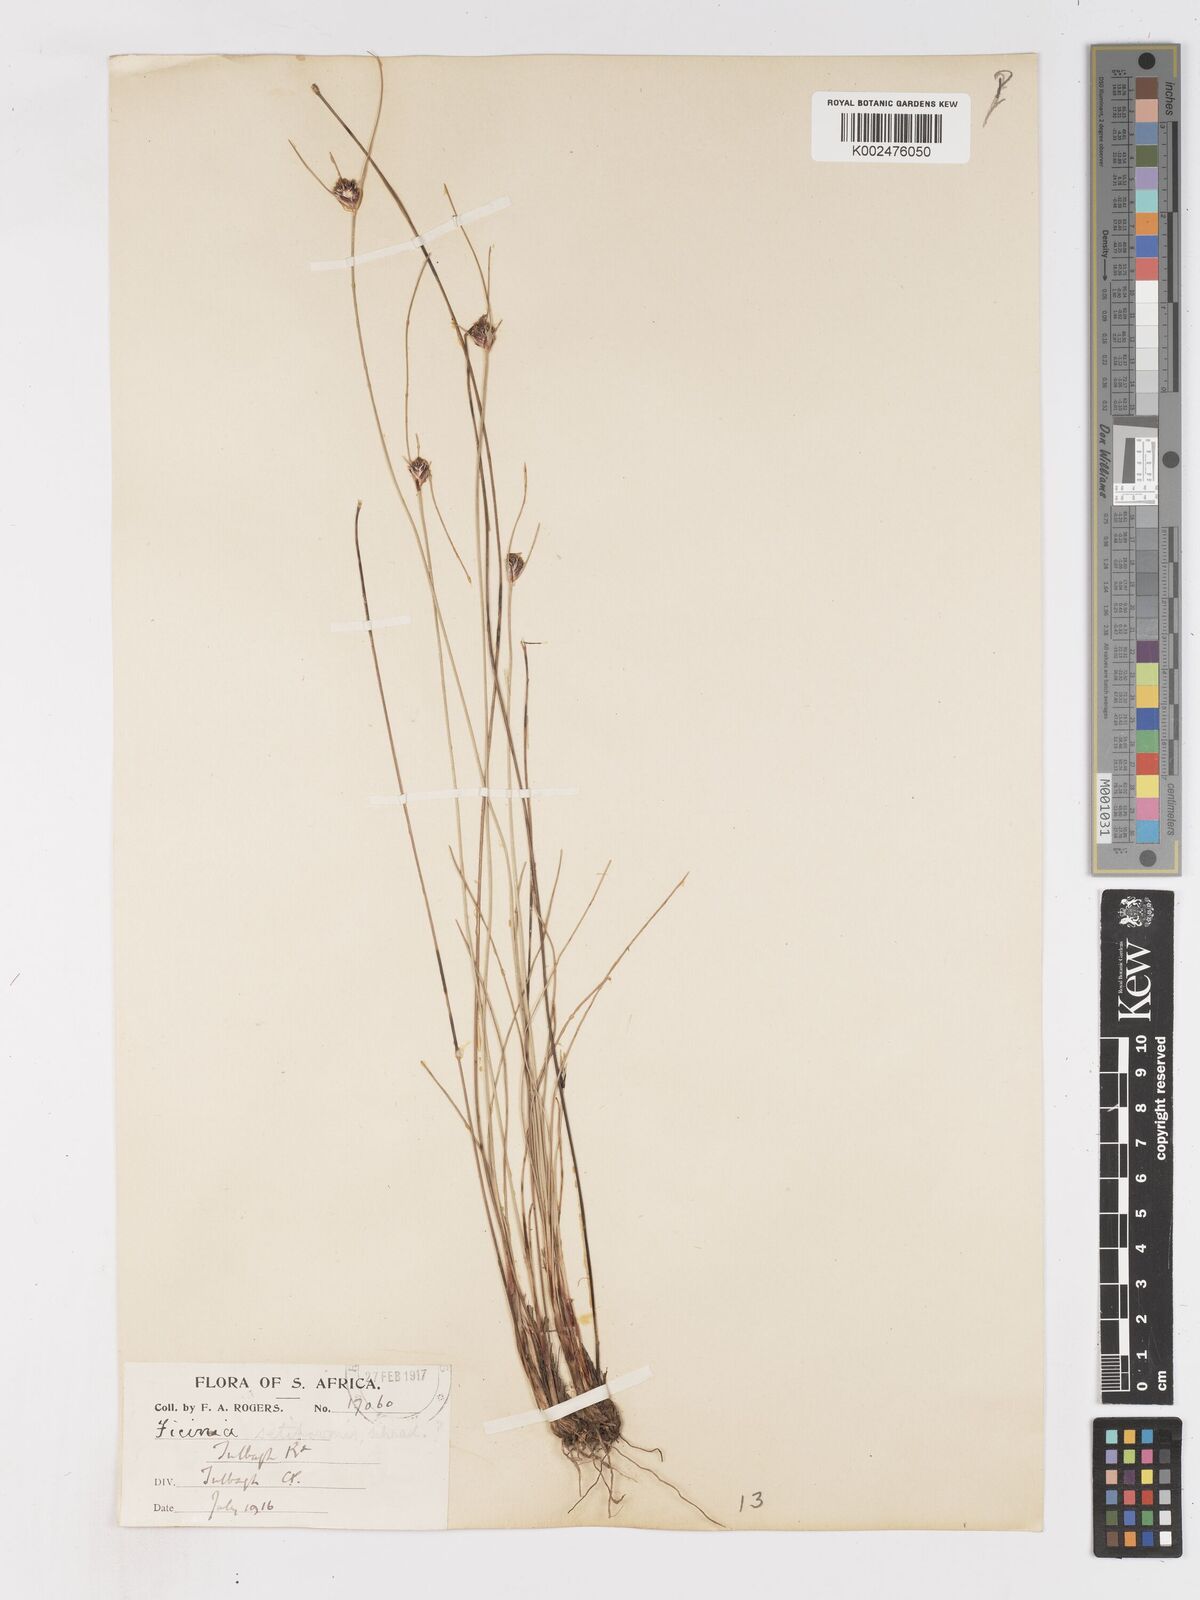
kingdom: Plantae
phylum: Tracheophyta
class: Liliopsida
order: Poales
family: Cyperaceae
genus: Ficinia
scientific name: Ficinia indica
